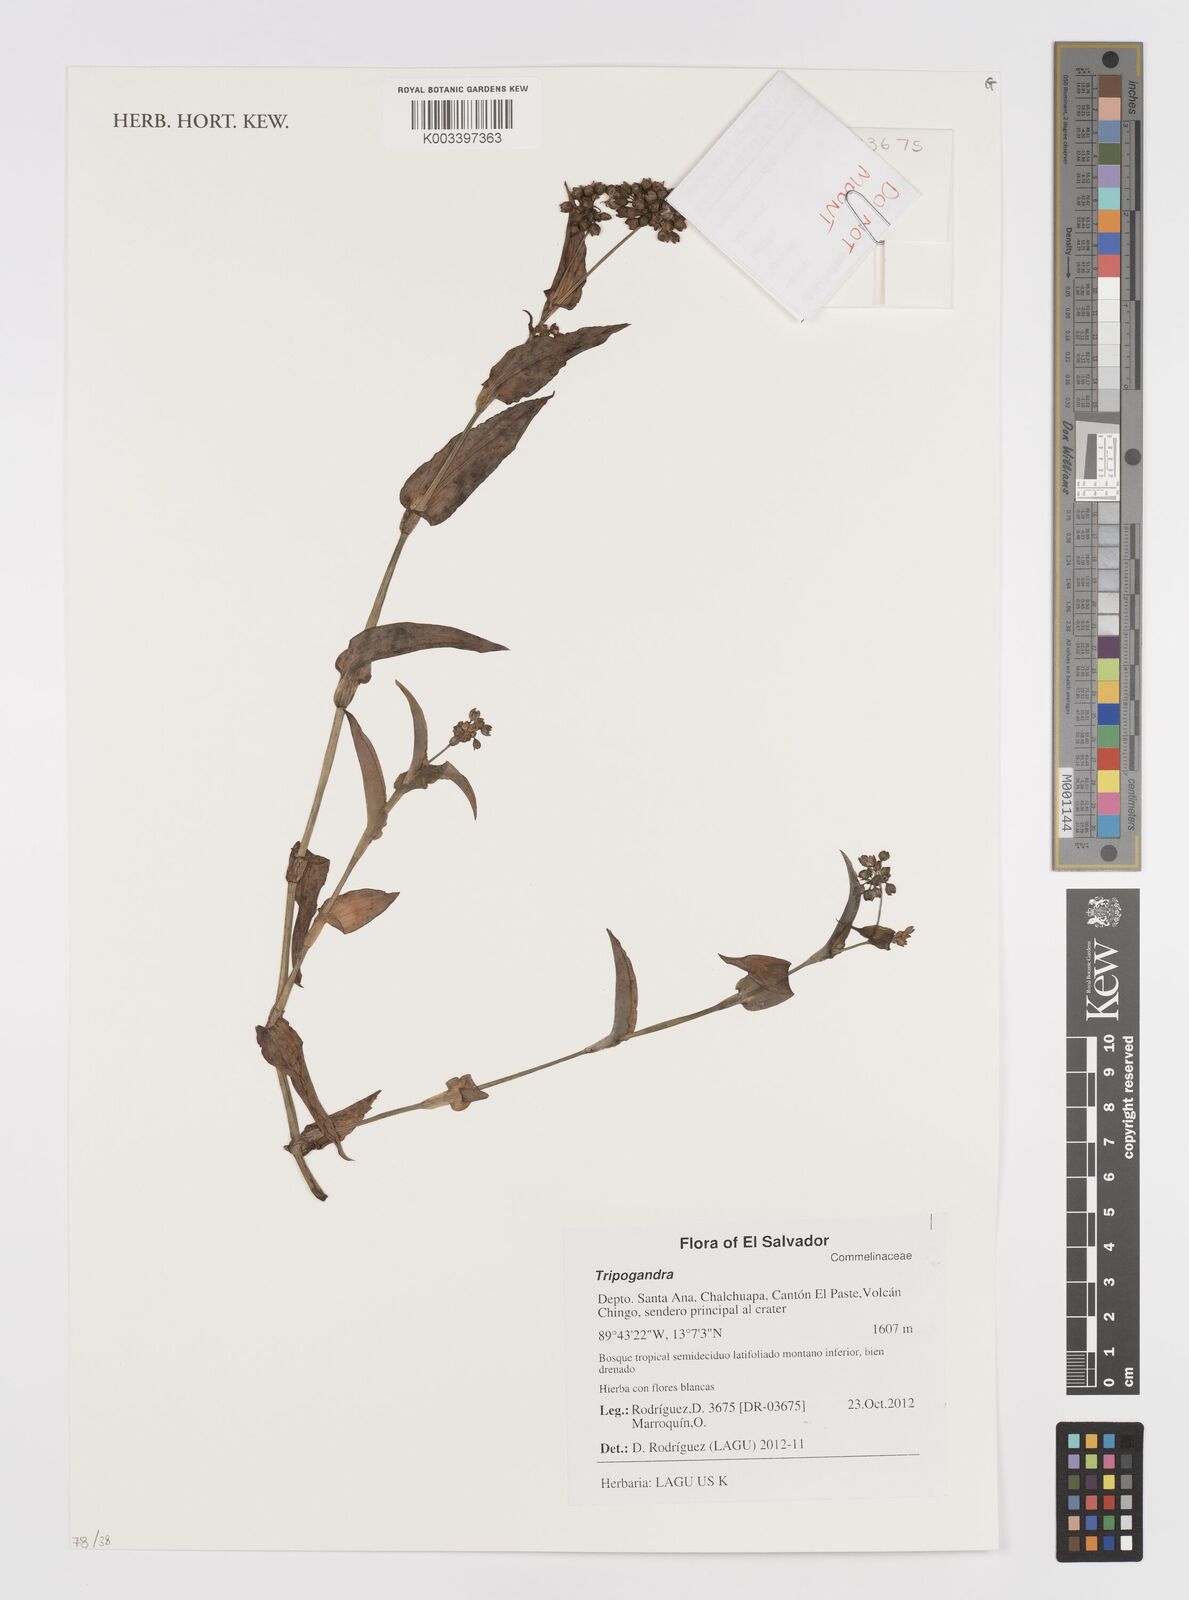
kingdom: Plantae
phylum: Tracheophyta
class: Liliopsida
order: Commelinales
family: Commelinaceae
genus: Callisia
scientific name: Callisia
